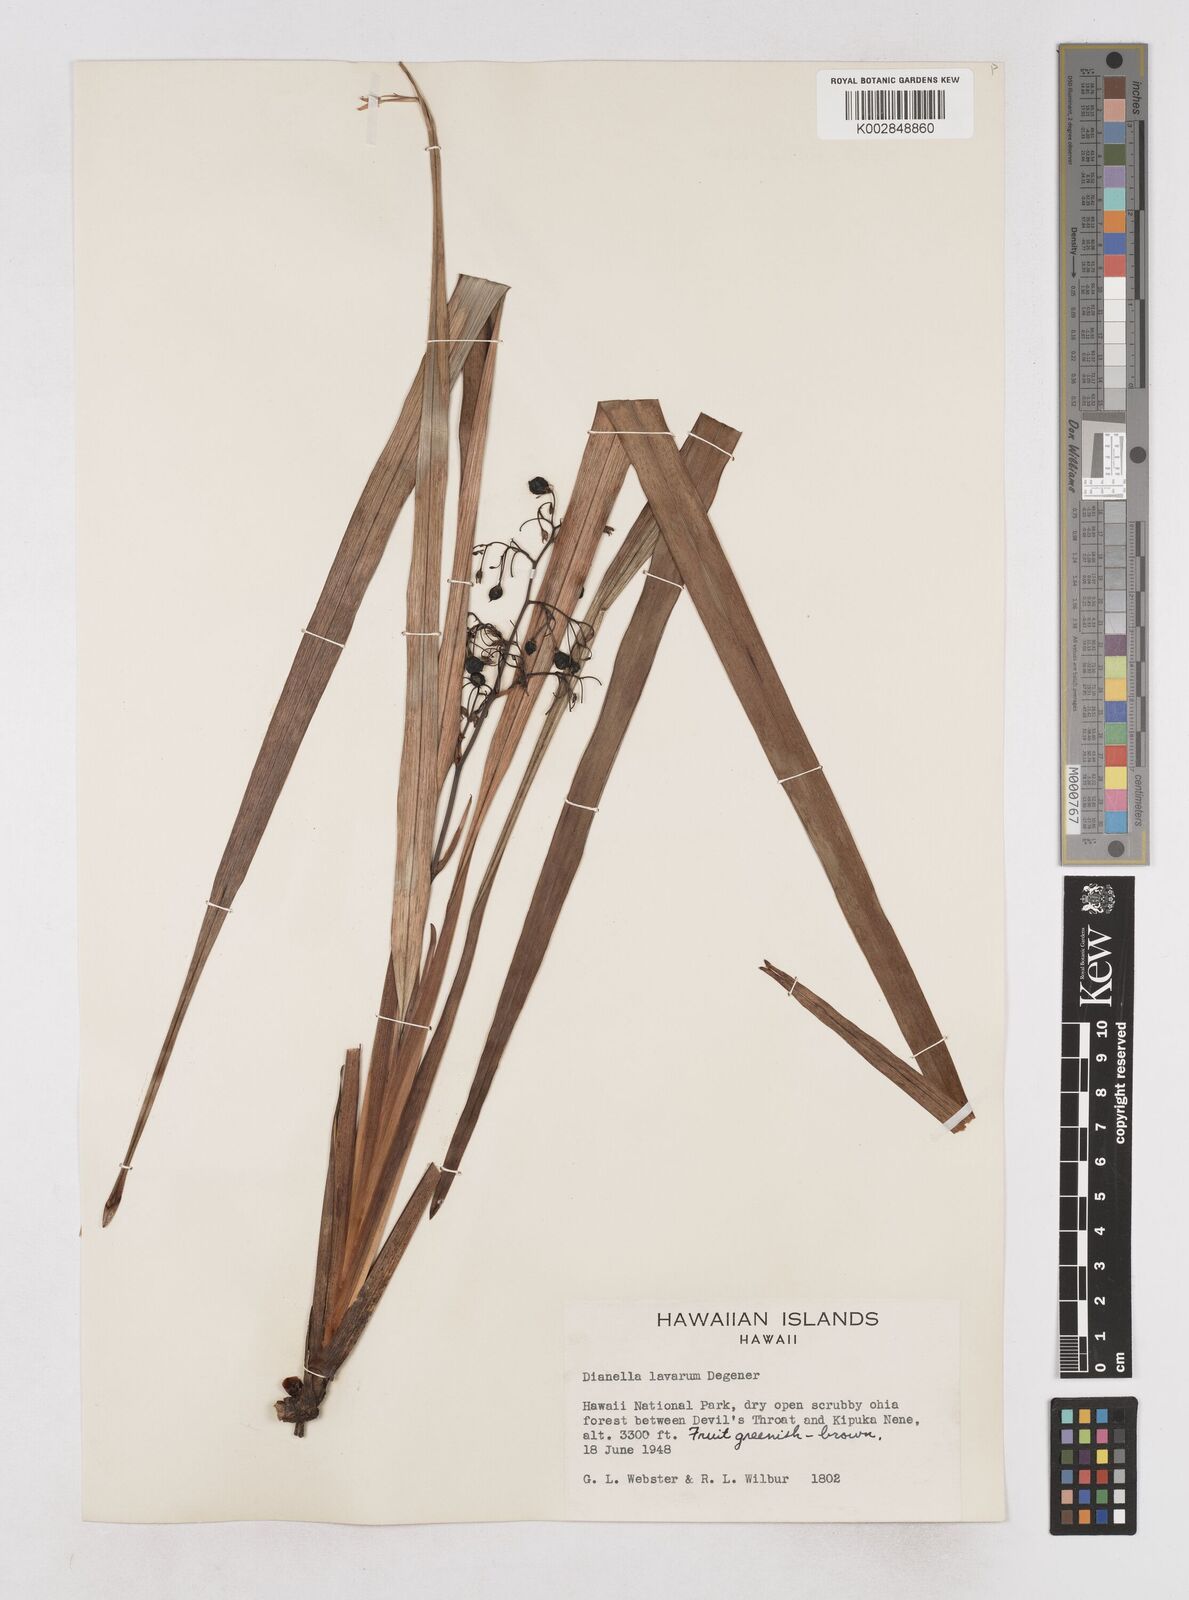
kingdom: Plantae
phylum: Tracheophyta
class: Liliopsida
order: Asparagales
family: Asphodelaceae
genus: Dianella
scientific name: Dianella sandwicensis
